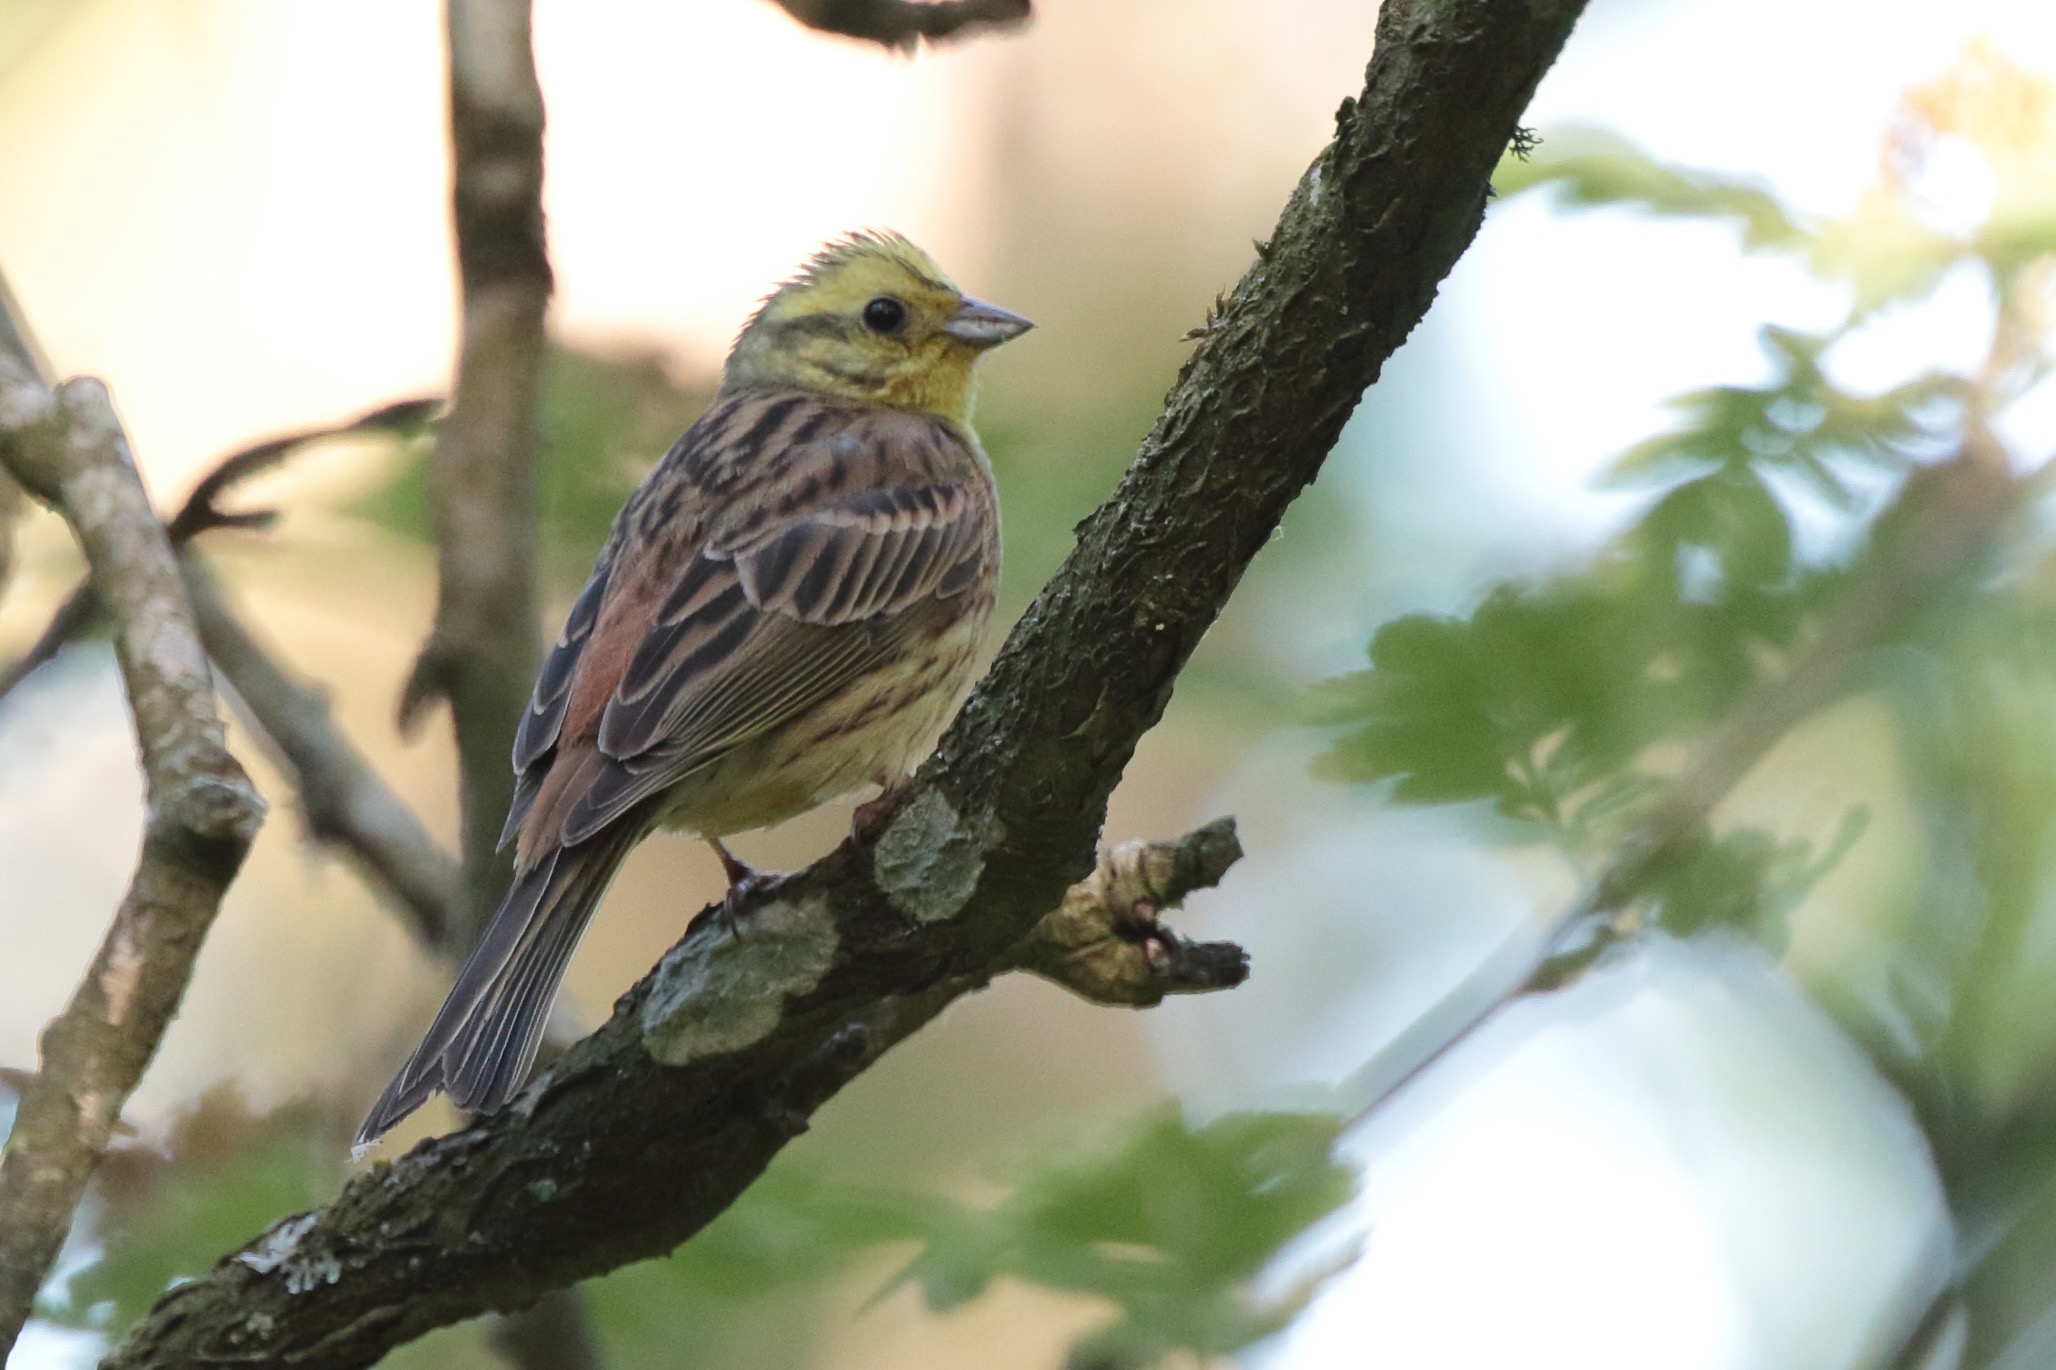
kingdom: Animalia
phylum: Chordata
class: Aves
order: Passeriformes
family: Emberizidae
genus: Emberiza
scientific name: Emberiza citrinella
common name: Gulspurv
